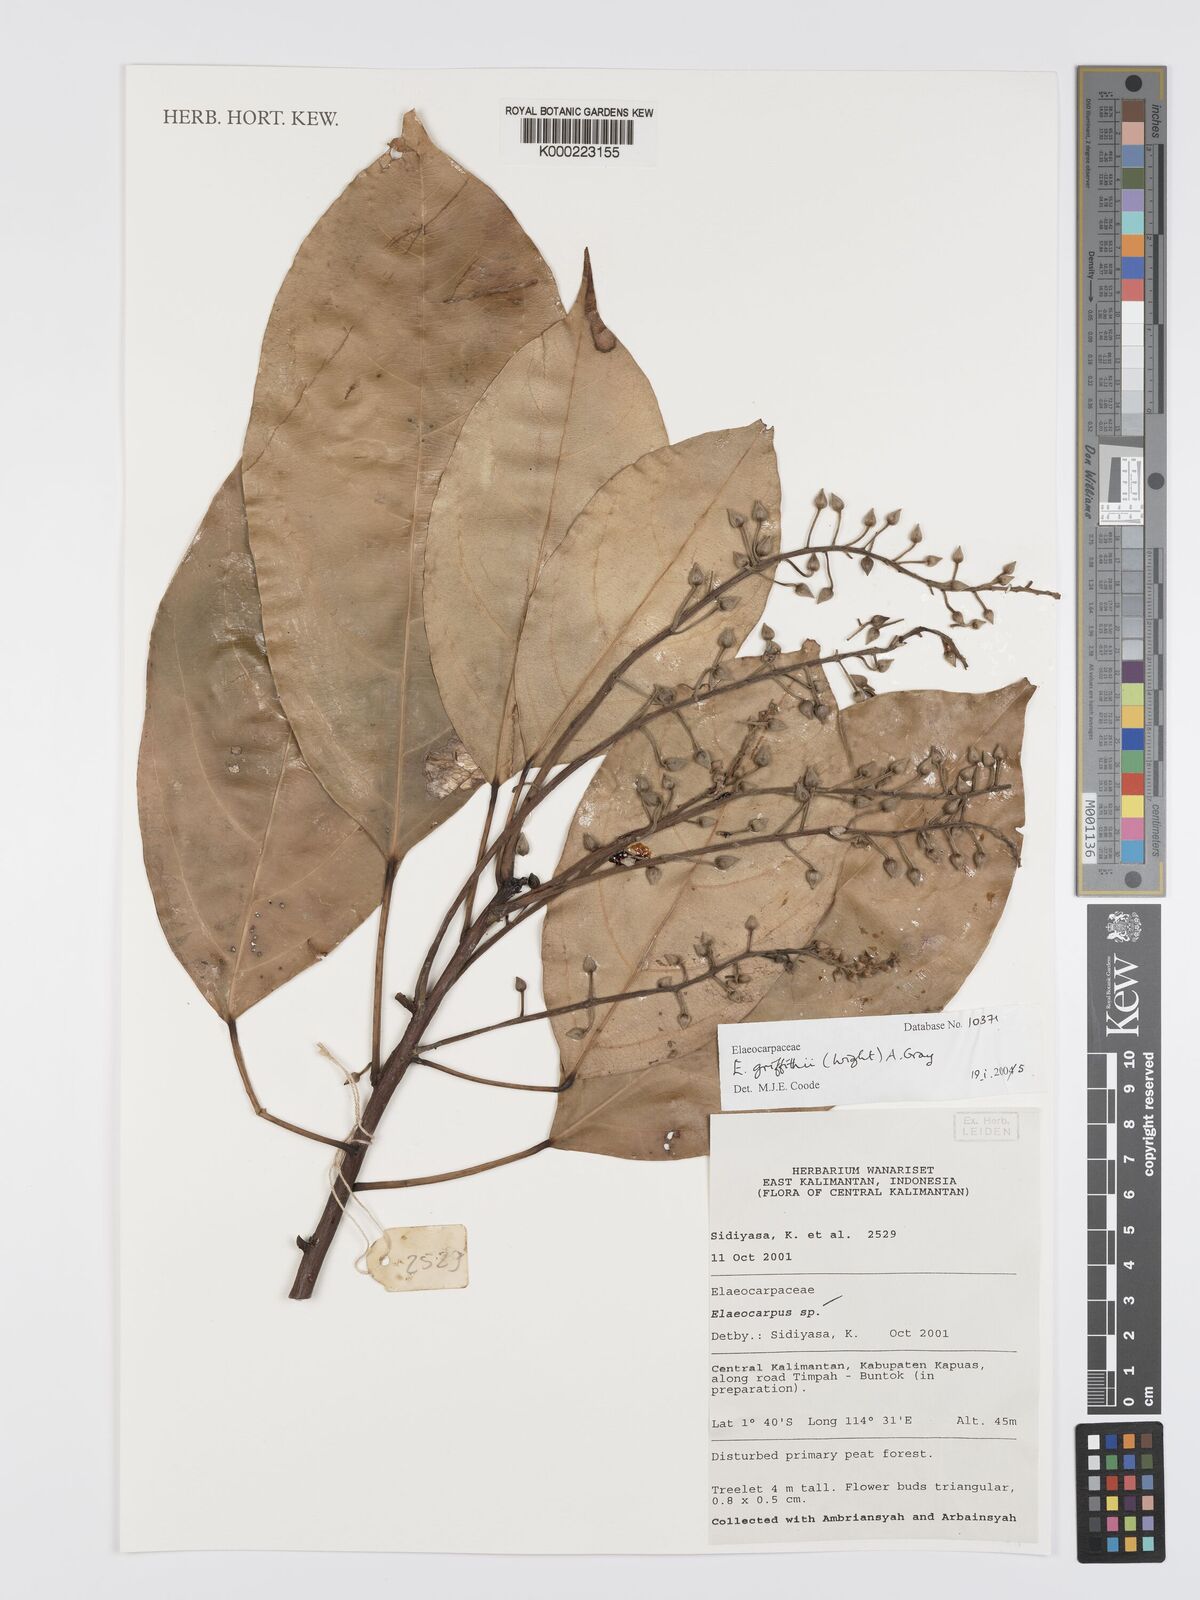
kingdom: Plantae
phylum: Tracheophyta
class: Magnoliopsida
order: Oxalidales
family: Elaeocarpaceae
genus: Elaeocarpus
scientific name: Elaeocarpus griffithii
